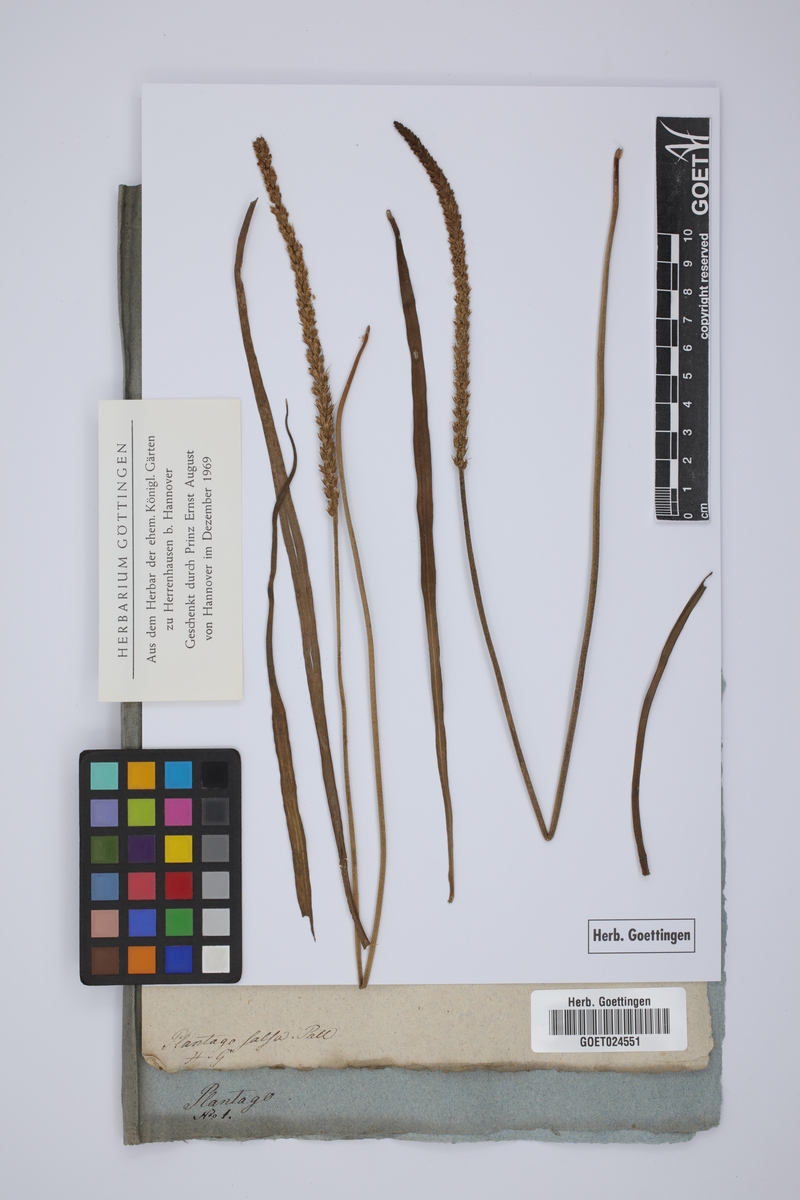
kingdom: Plantae
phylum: Tracheophyta
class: Magnoliopsida
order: Lamiales
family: Plantaginaceae
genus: Plantago
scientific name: Plantago salsa
